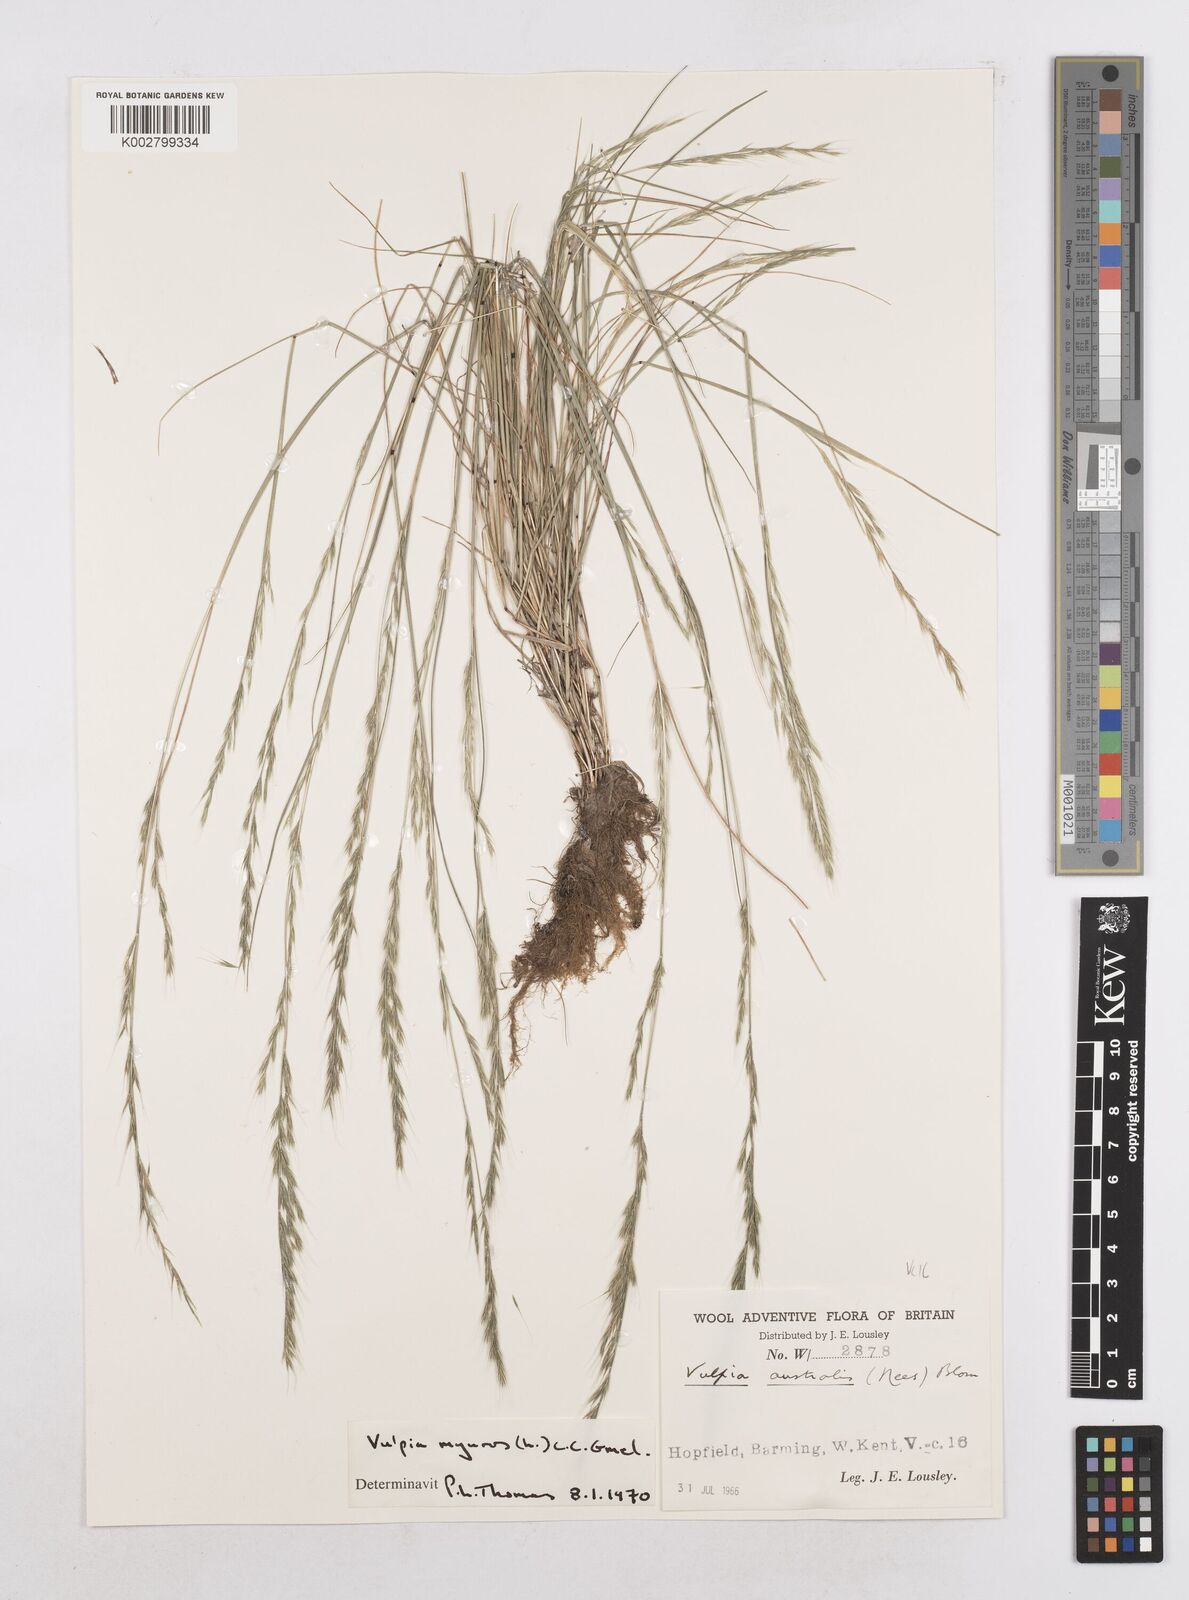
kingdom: Plantae
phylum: Tracheophyta
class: Liliopsida
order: Poales
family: Poaceae
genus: Festuca
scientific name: Festuca myuros
